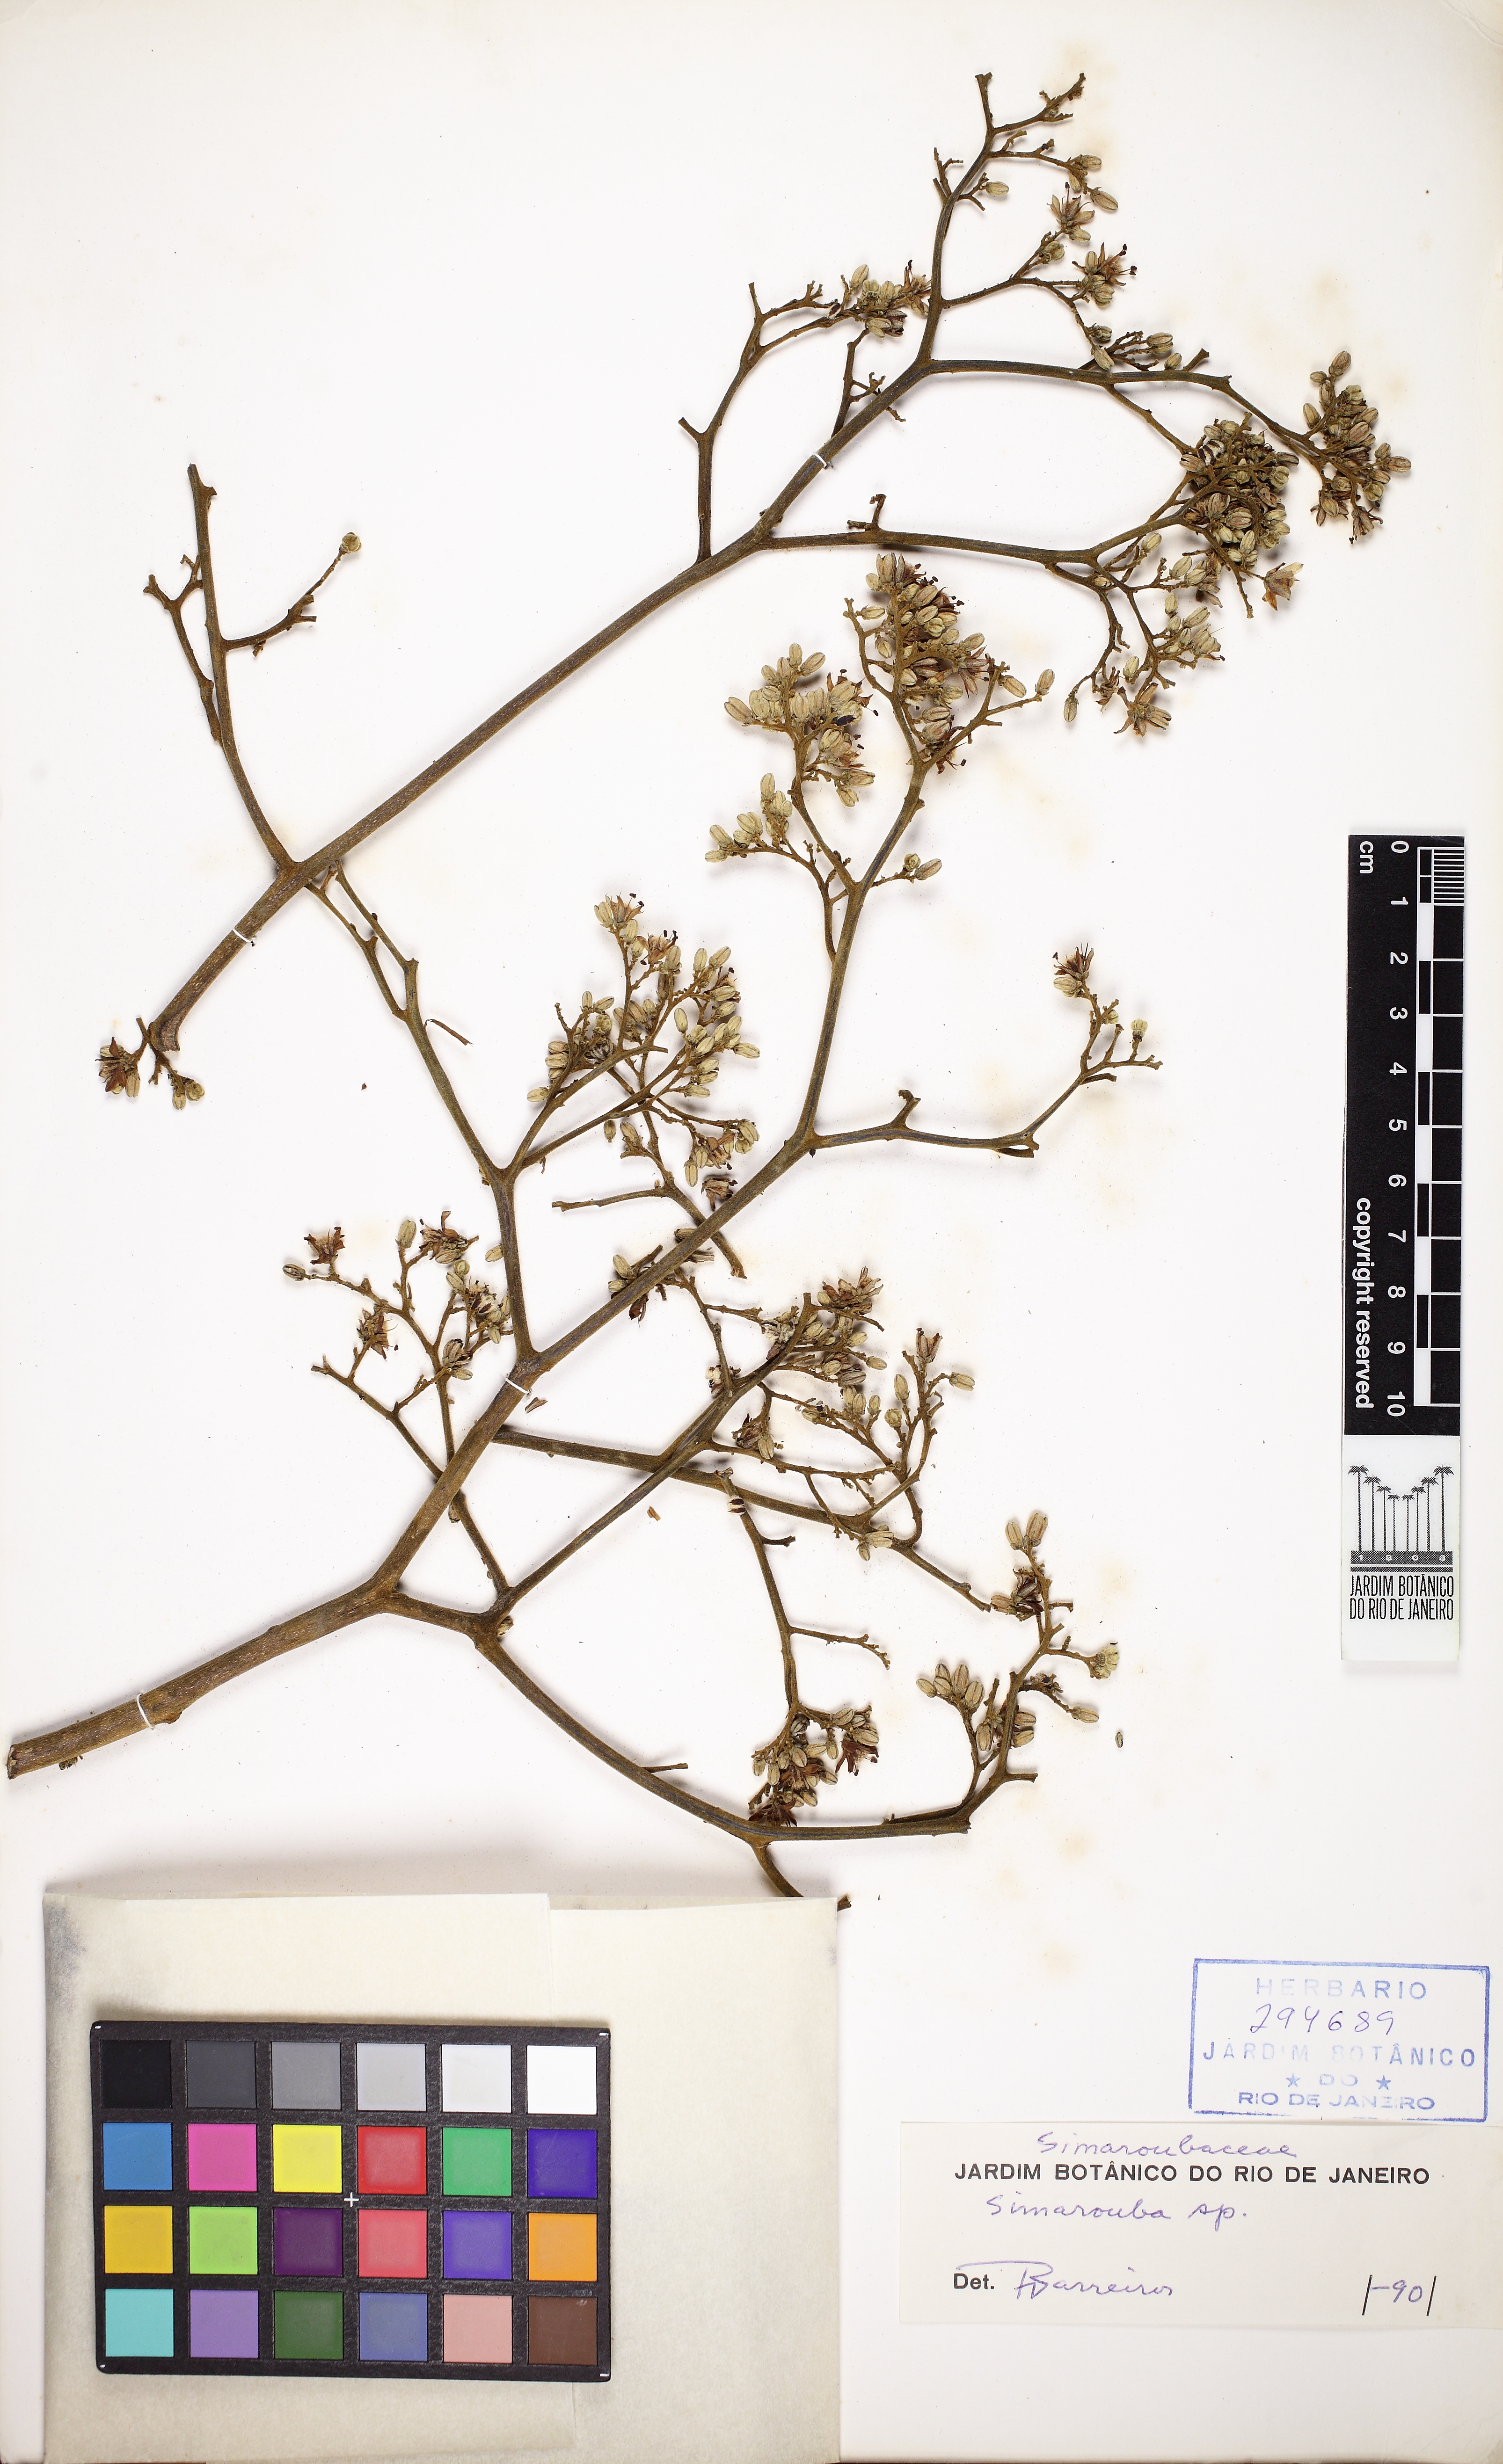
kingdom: Plantae
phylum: Tracheophyta
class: Magnoliopsida
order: Sapindales
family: Rutaceae
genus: Dictyoloma
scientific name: Dictyoloma vandellianum
